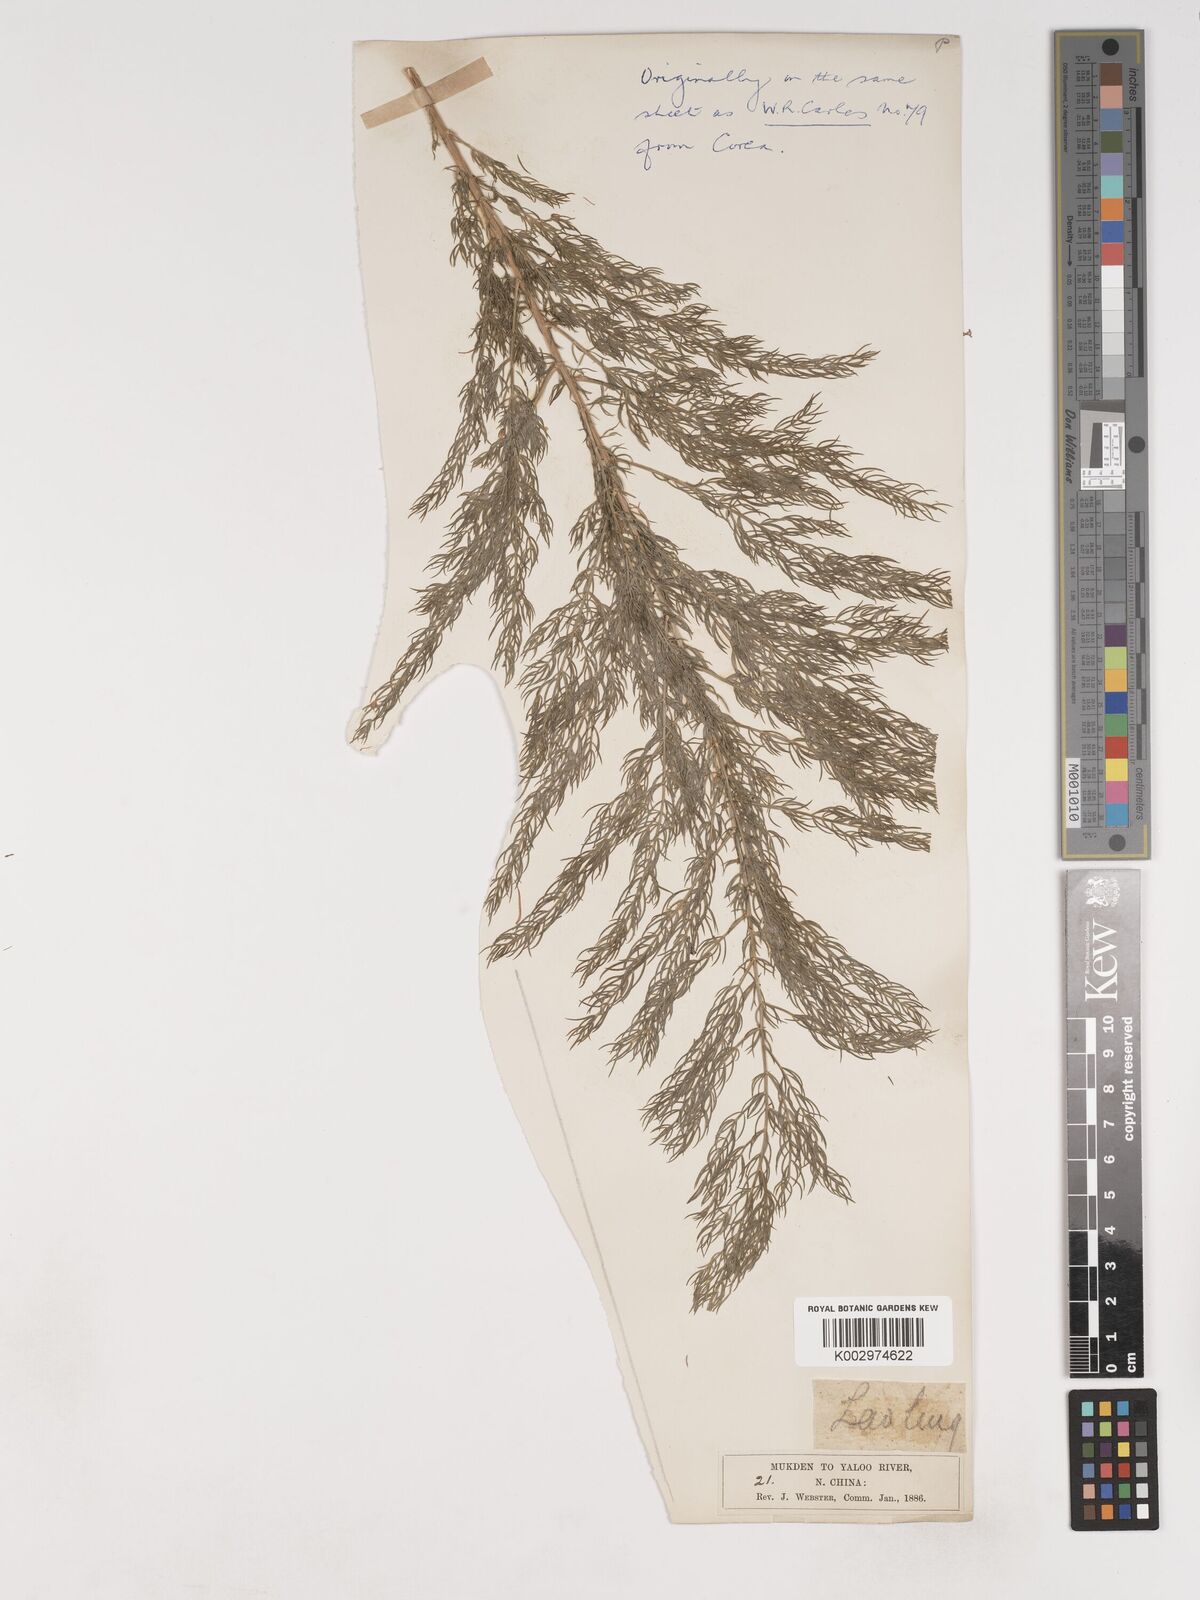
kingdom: Plantae
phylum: Tracheophyta
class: Liliopsida
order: Asparagales
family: Asparagaceae
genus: Asparagus
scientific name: Asparagus schoberioides
